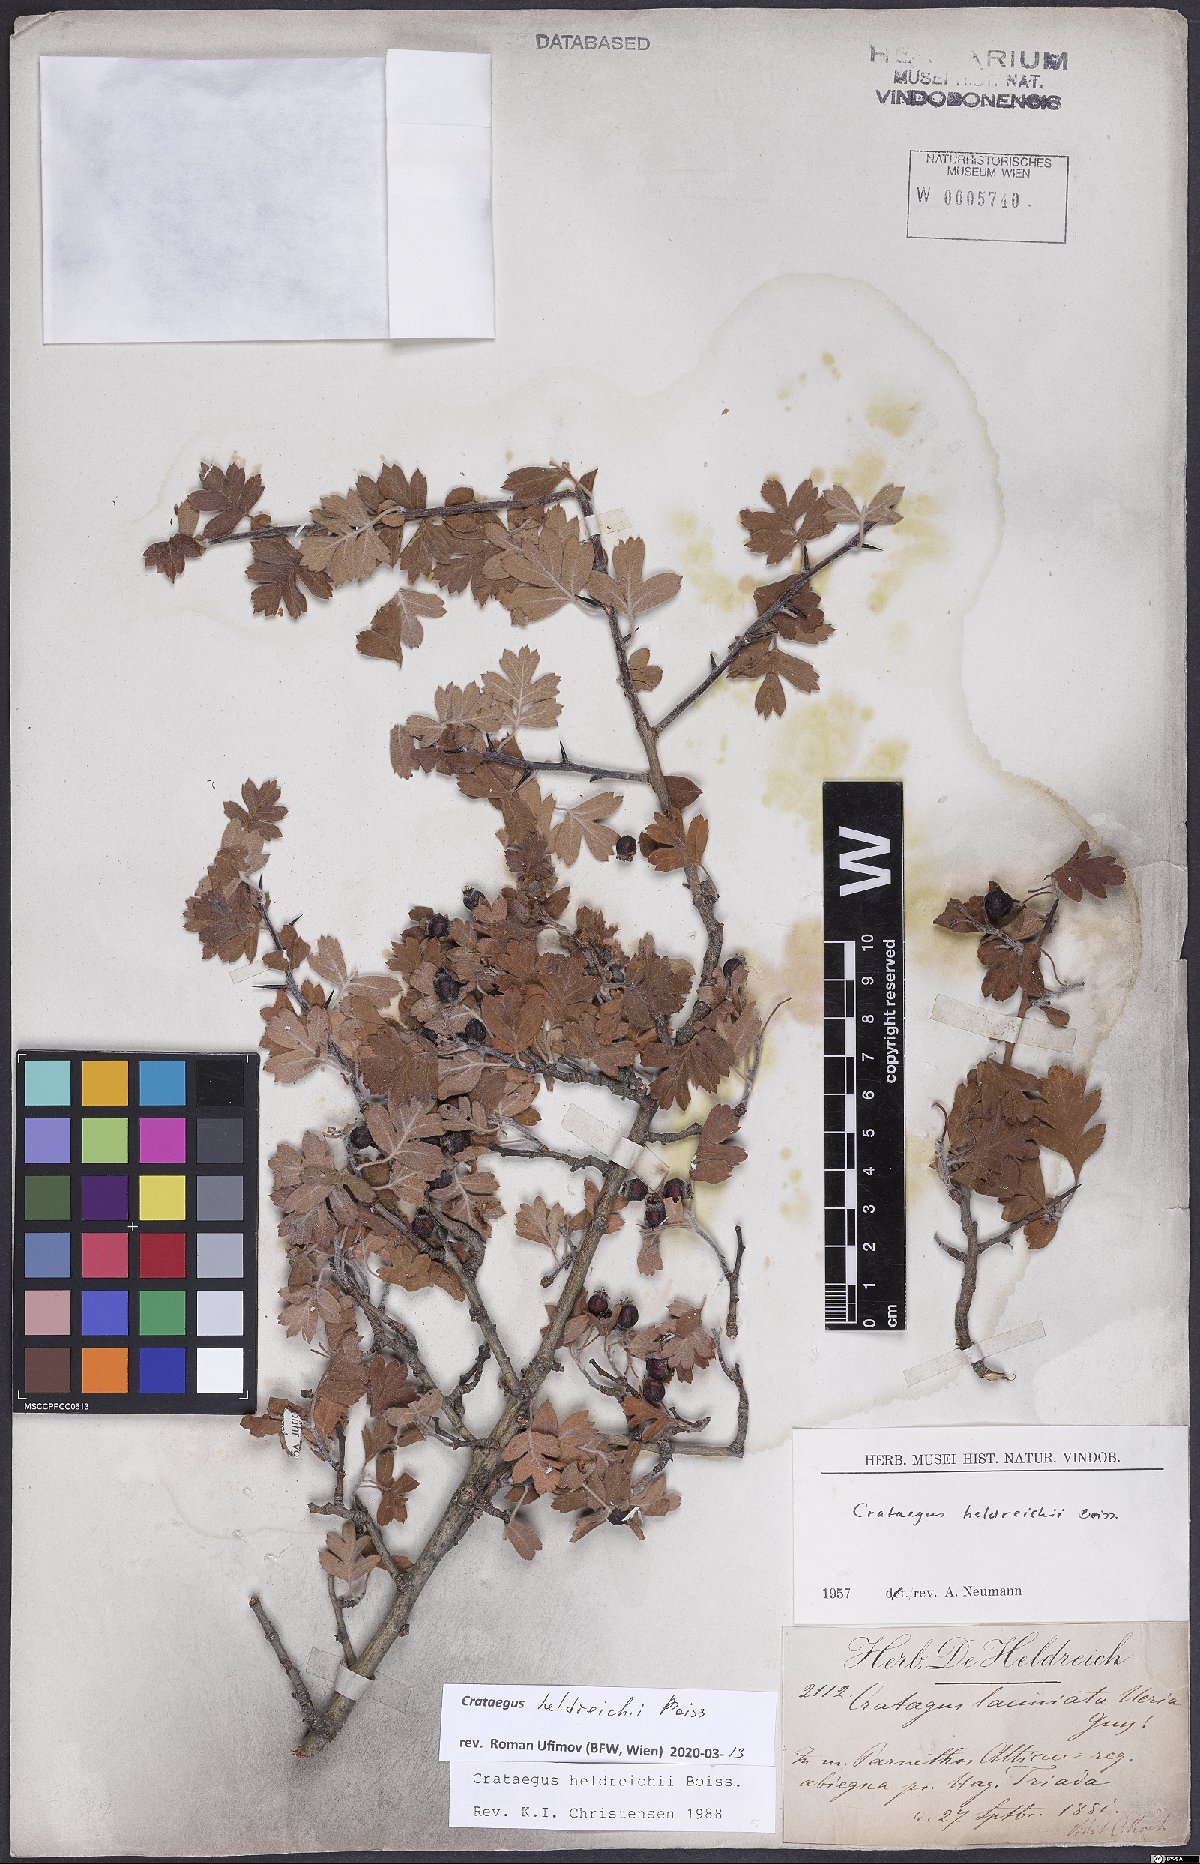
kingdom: Plantae
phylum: Tracheophyta
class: Magnoliopsida
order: Rosales
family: Rosaceae
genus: Crataegus
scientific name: Crataegus heldreichii
